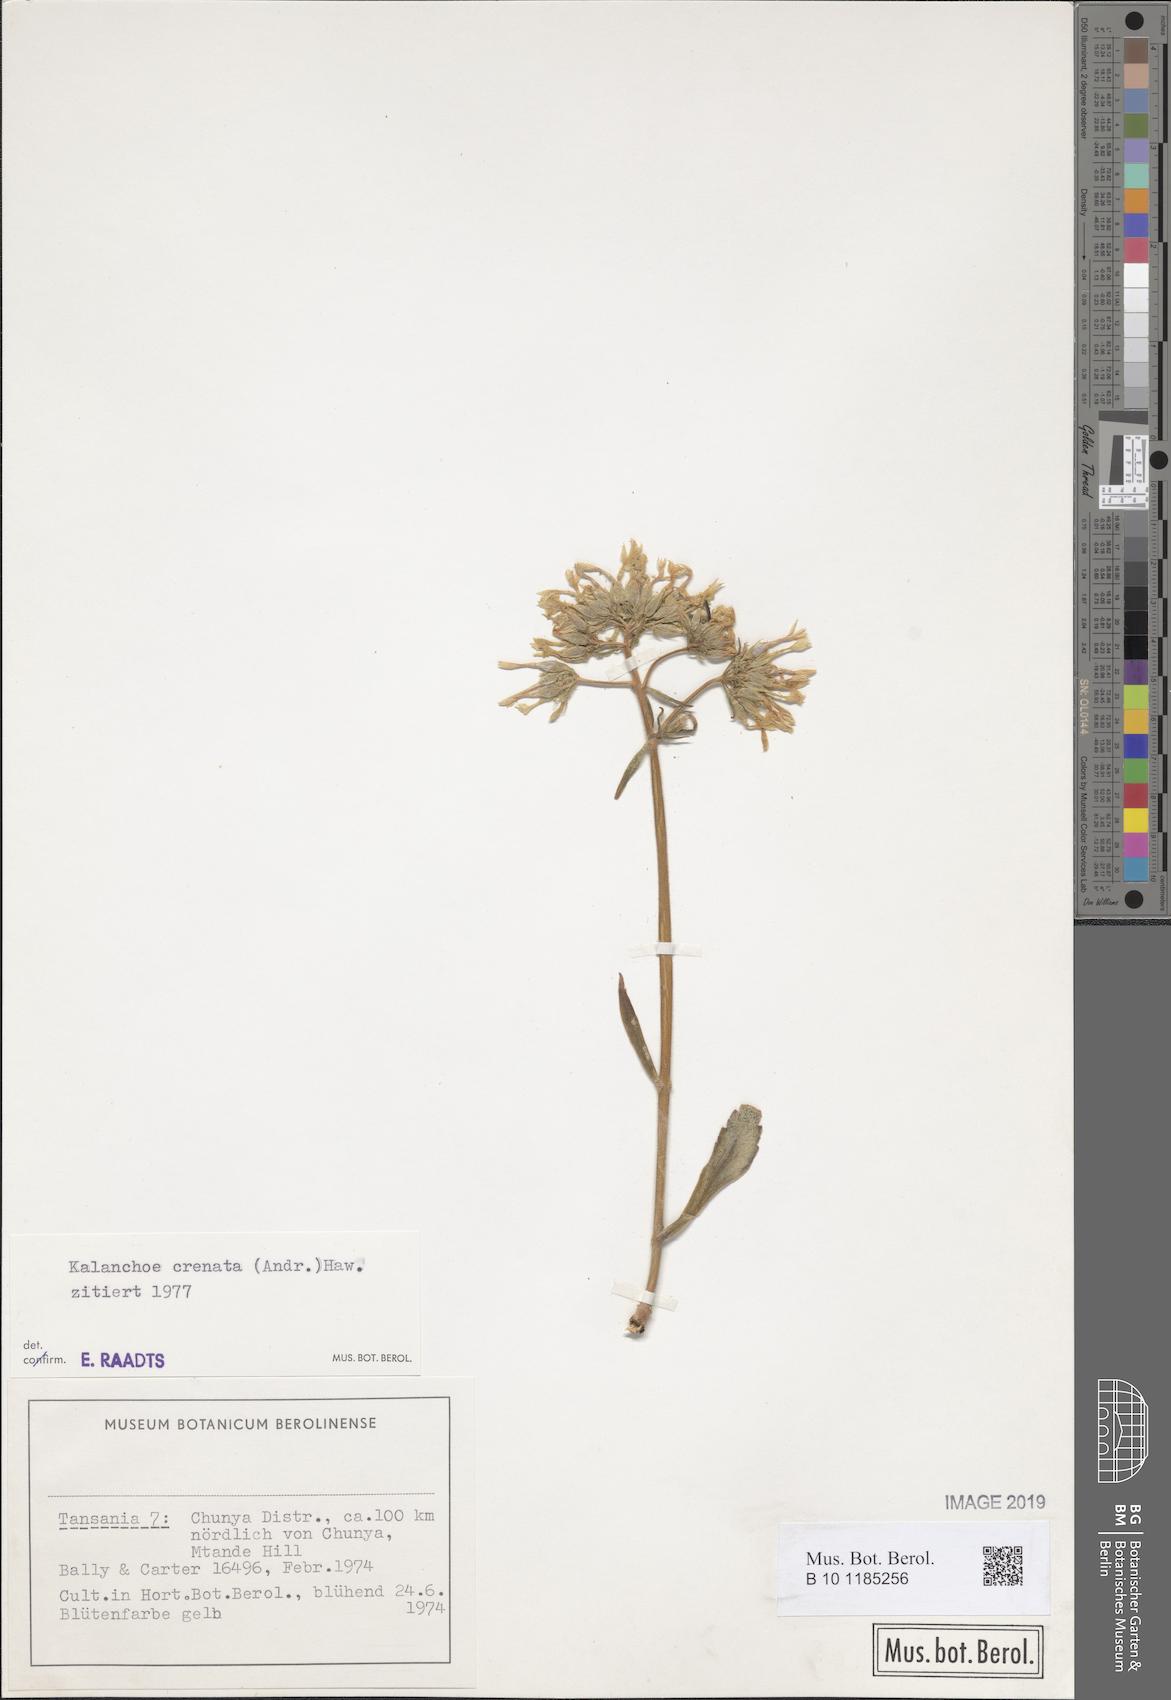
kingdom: Plantae
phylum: Tracheophyta
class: Magnoliopsida
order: Saxifragales
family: Crassulaceae
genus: Kalanchoe
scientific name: Kalanchoe crenata
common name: Neverdie
